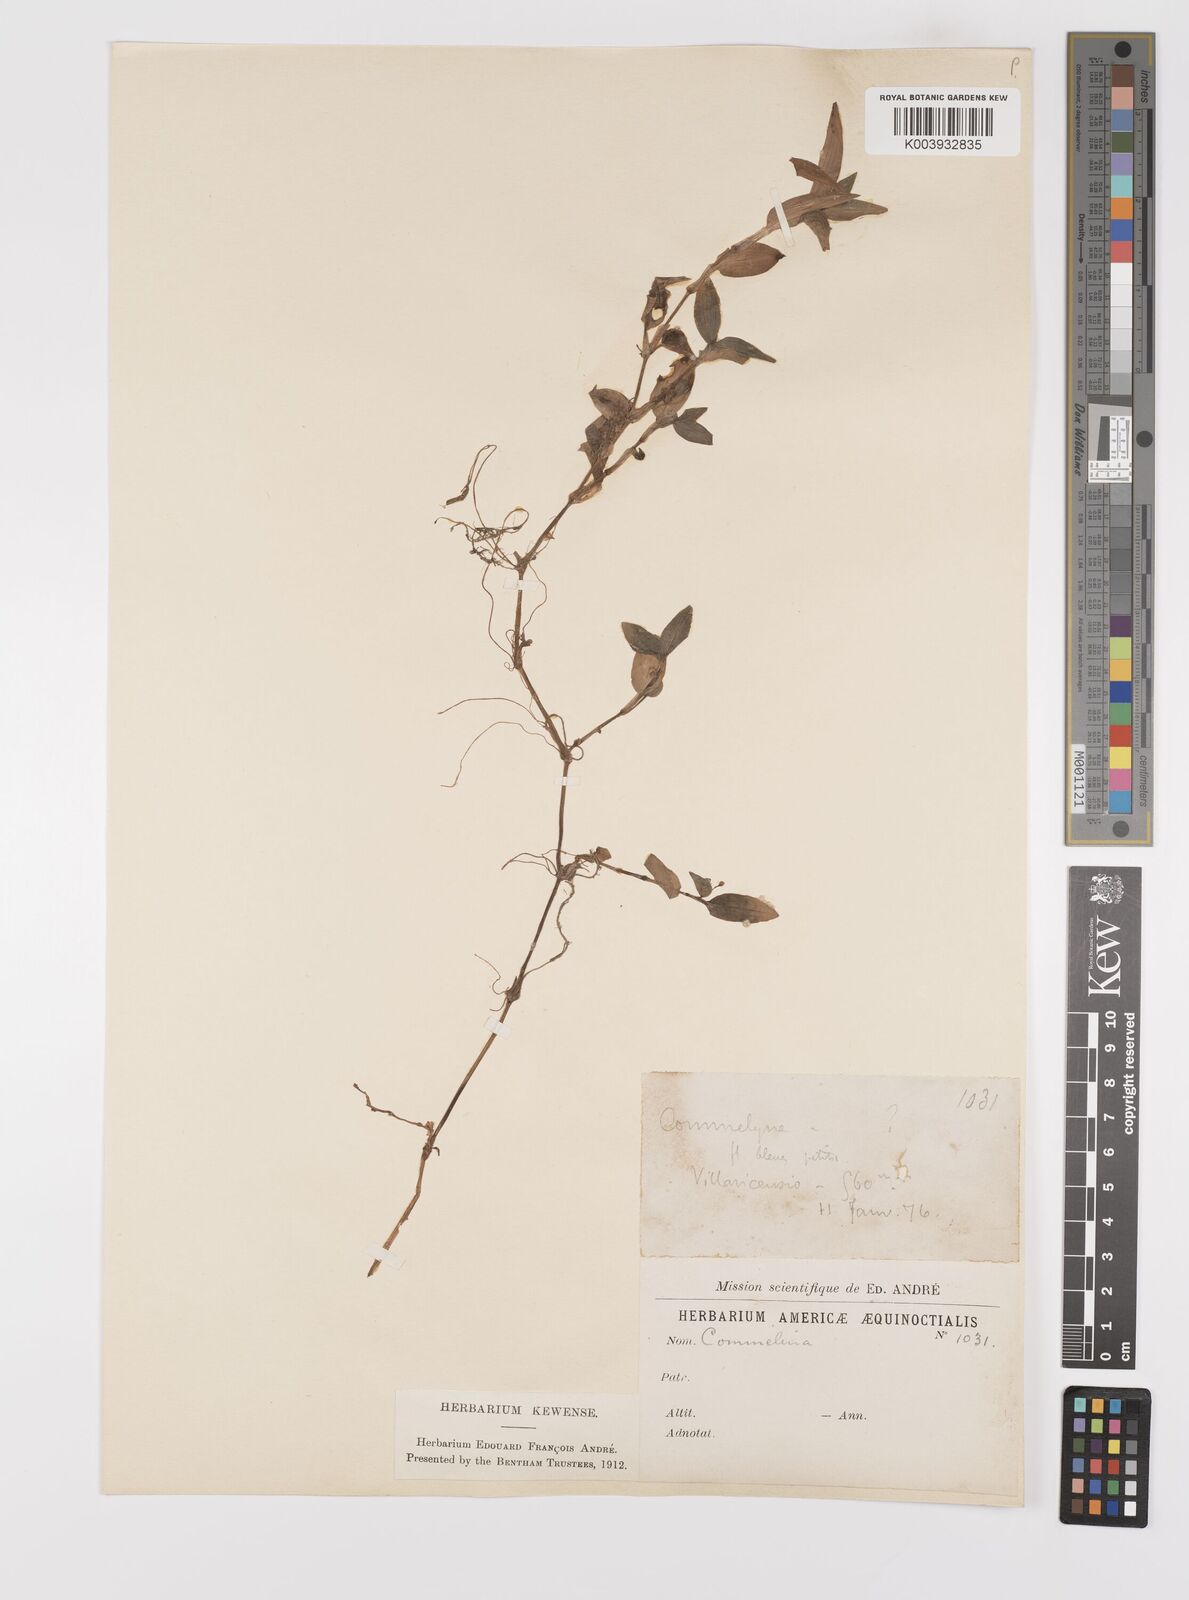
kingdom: Plantae
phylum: Tracheophyta
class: Liliopsida
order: Commelinales
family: Commelinaceae
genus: Commelina
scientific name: Commelina
